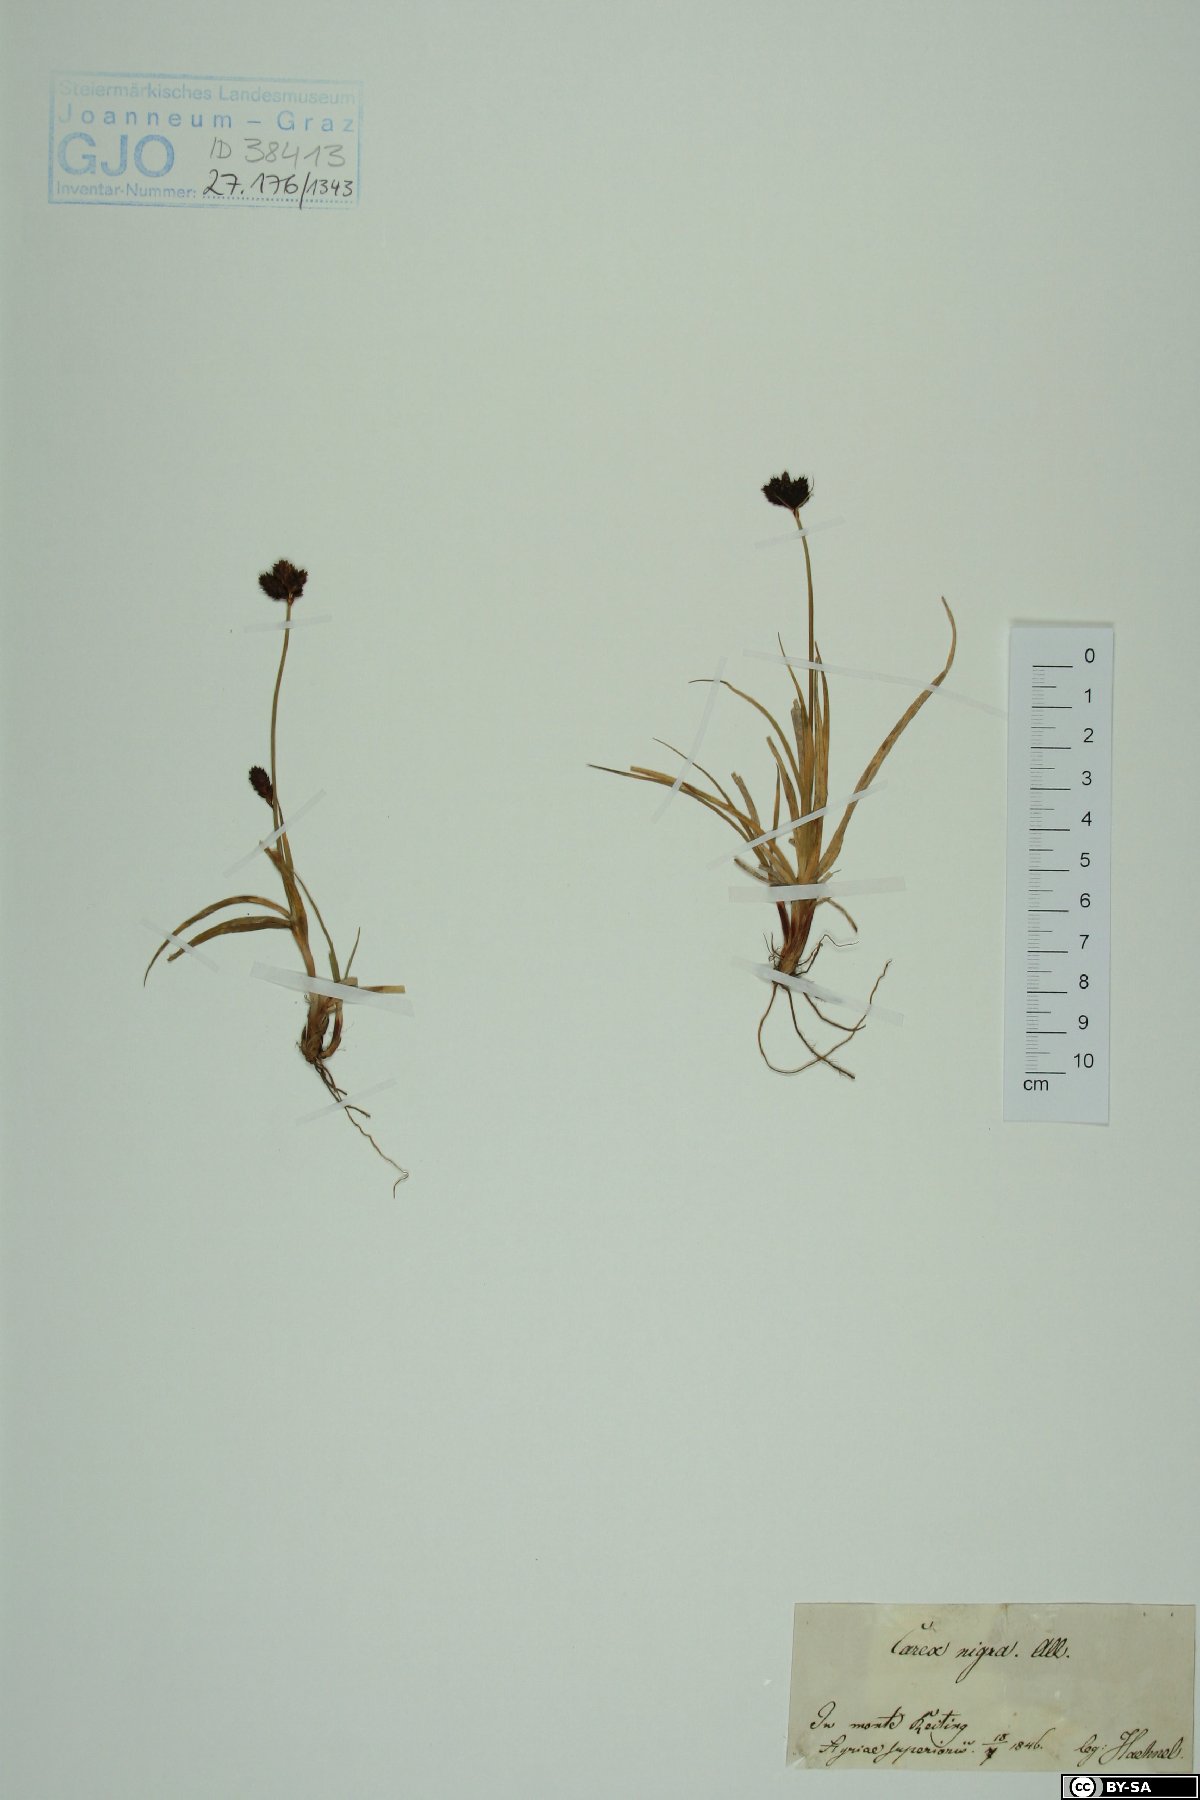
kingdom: Plantae
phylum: Tracheophyta
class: Liliopsida
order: Poales
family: Cyperaceae
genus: Carex
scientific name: Carex nigra
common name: Common sedge
